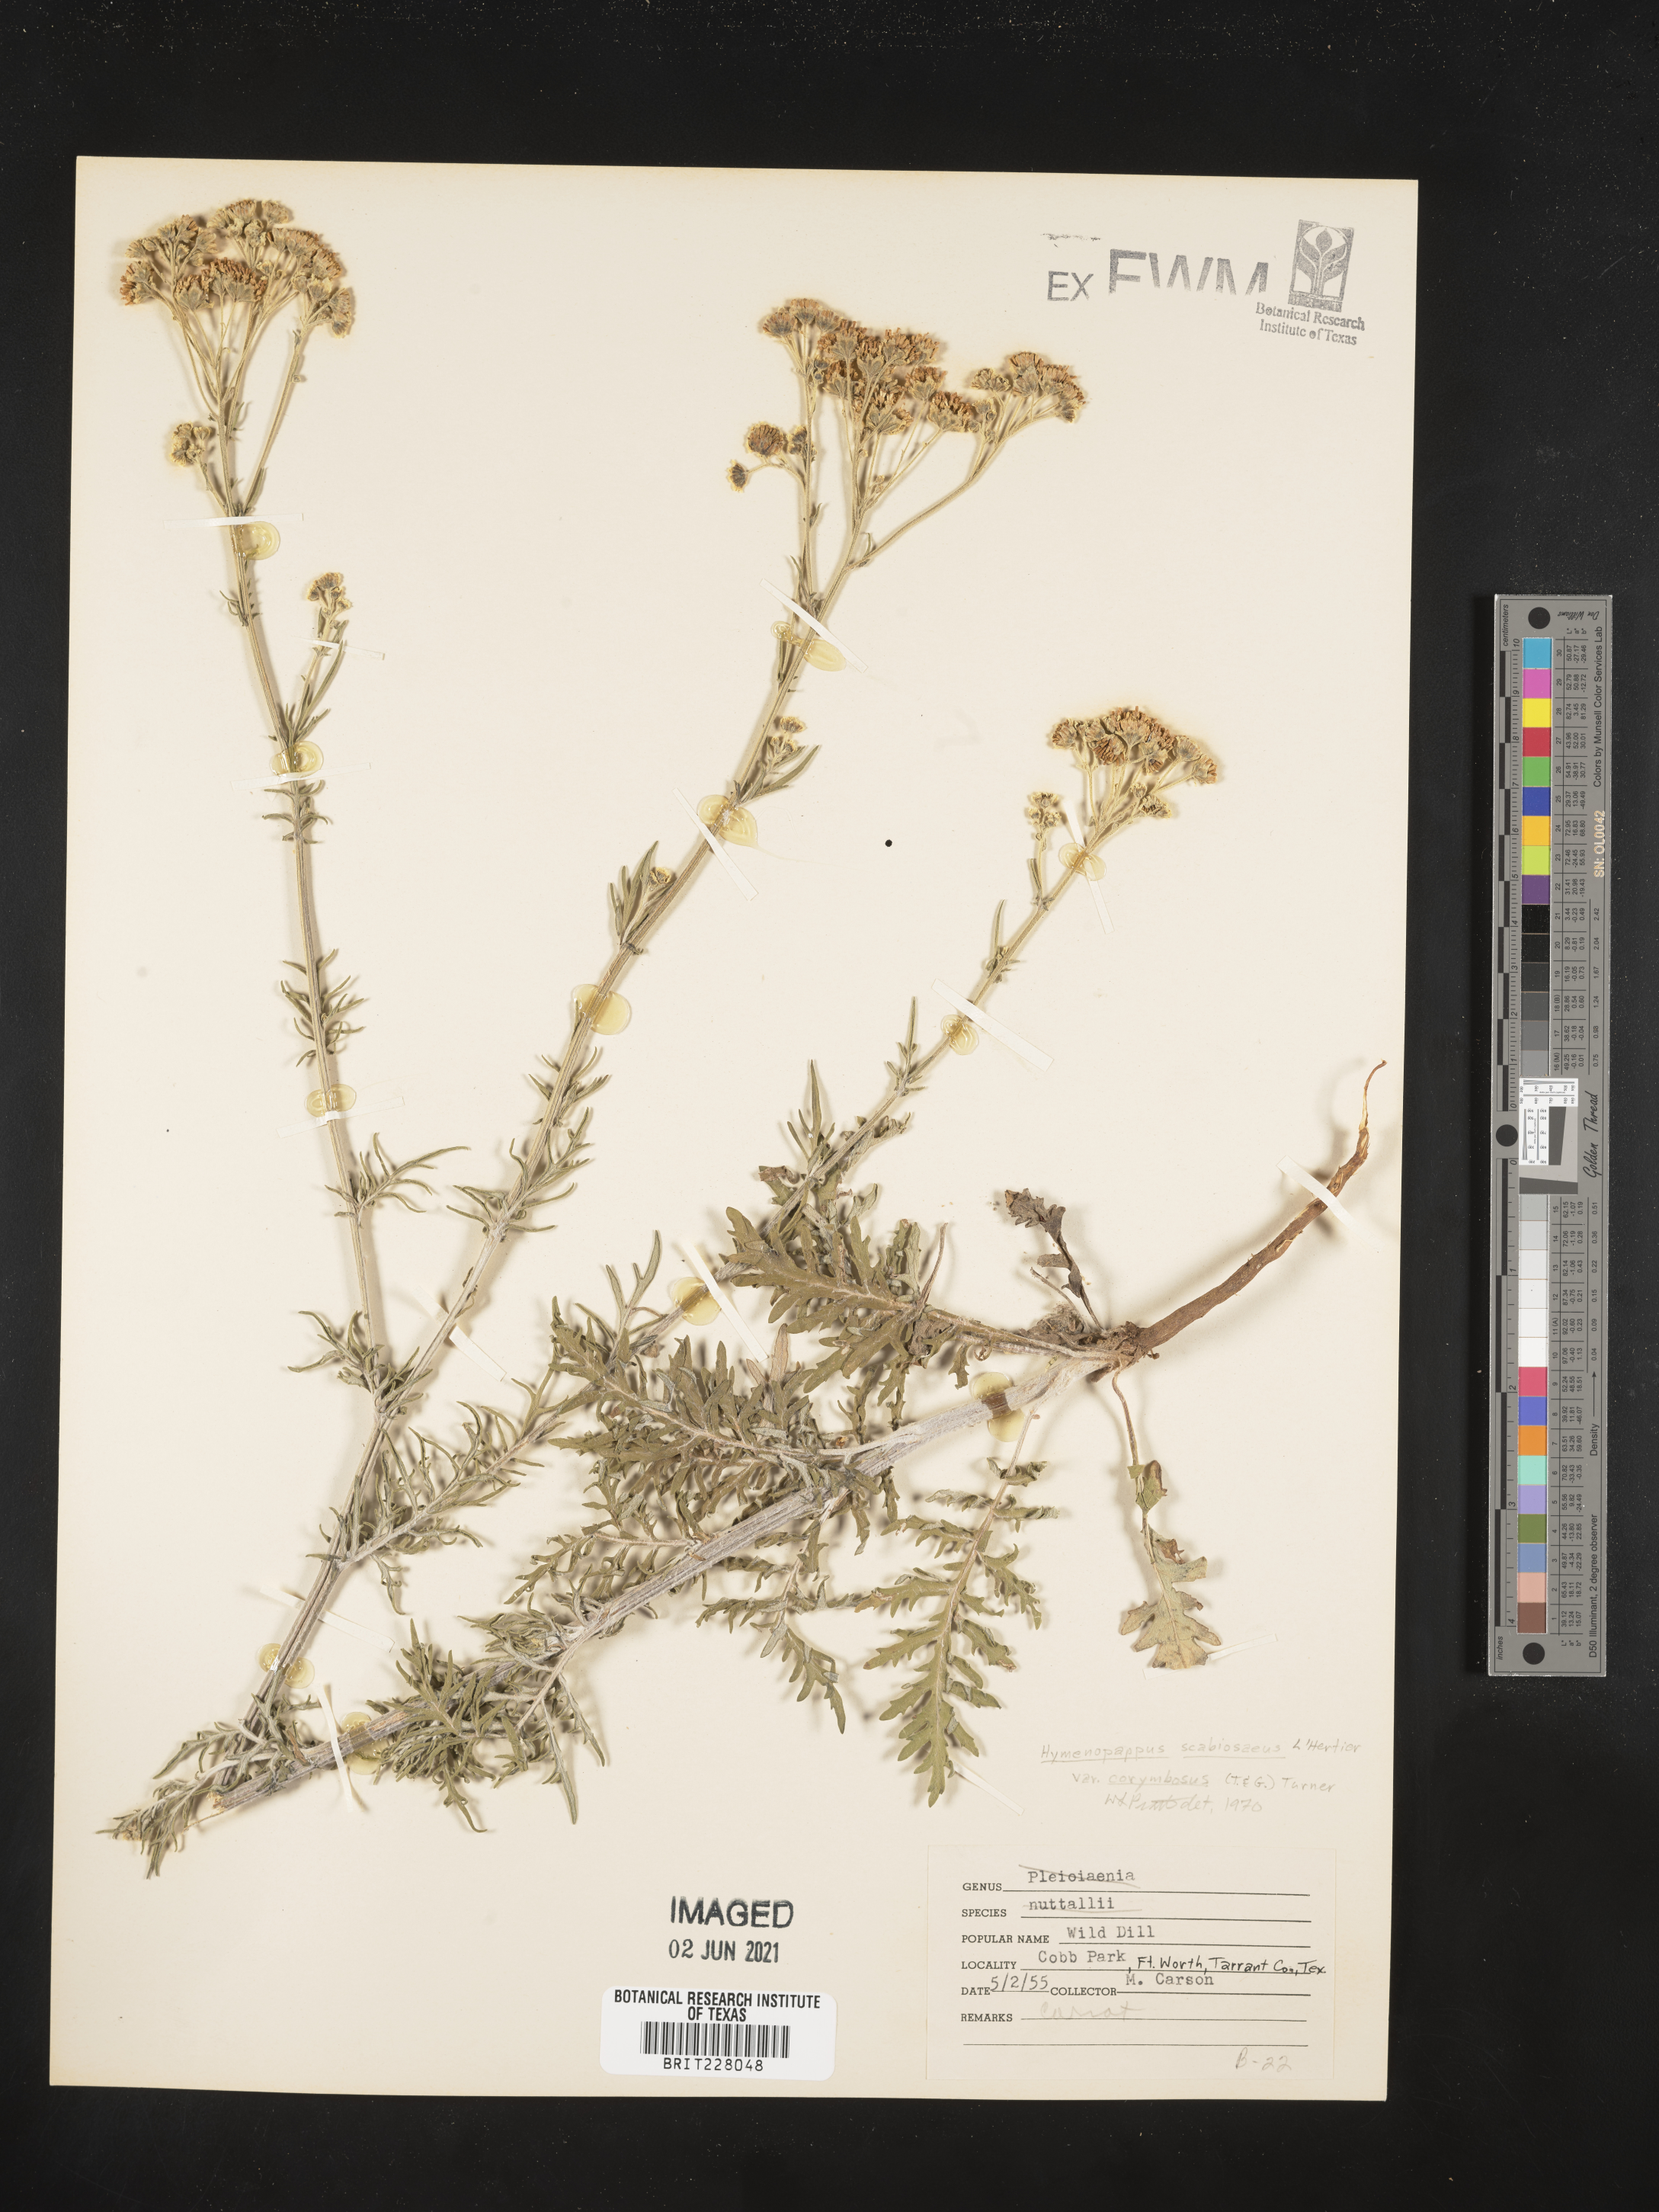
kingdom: Plantae
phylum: Tracheophyta
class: Magnoliopsida
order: Asterales
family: Asteraceae
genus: Hymenopappus
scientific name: Hymenopappus scabiosaeus
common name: Carolina woollywhite
